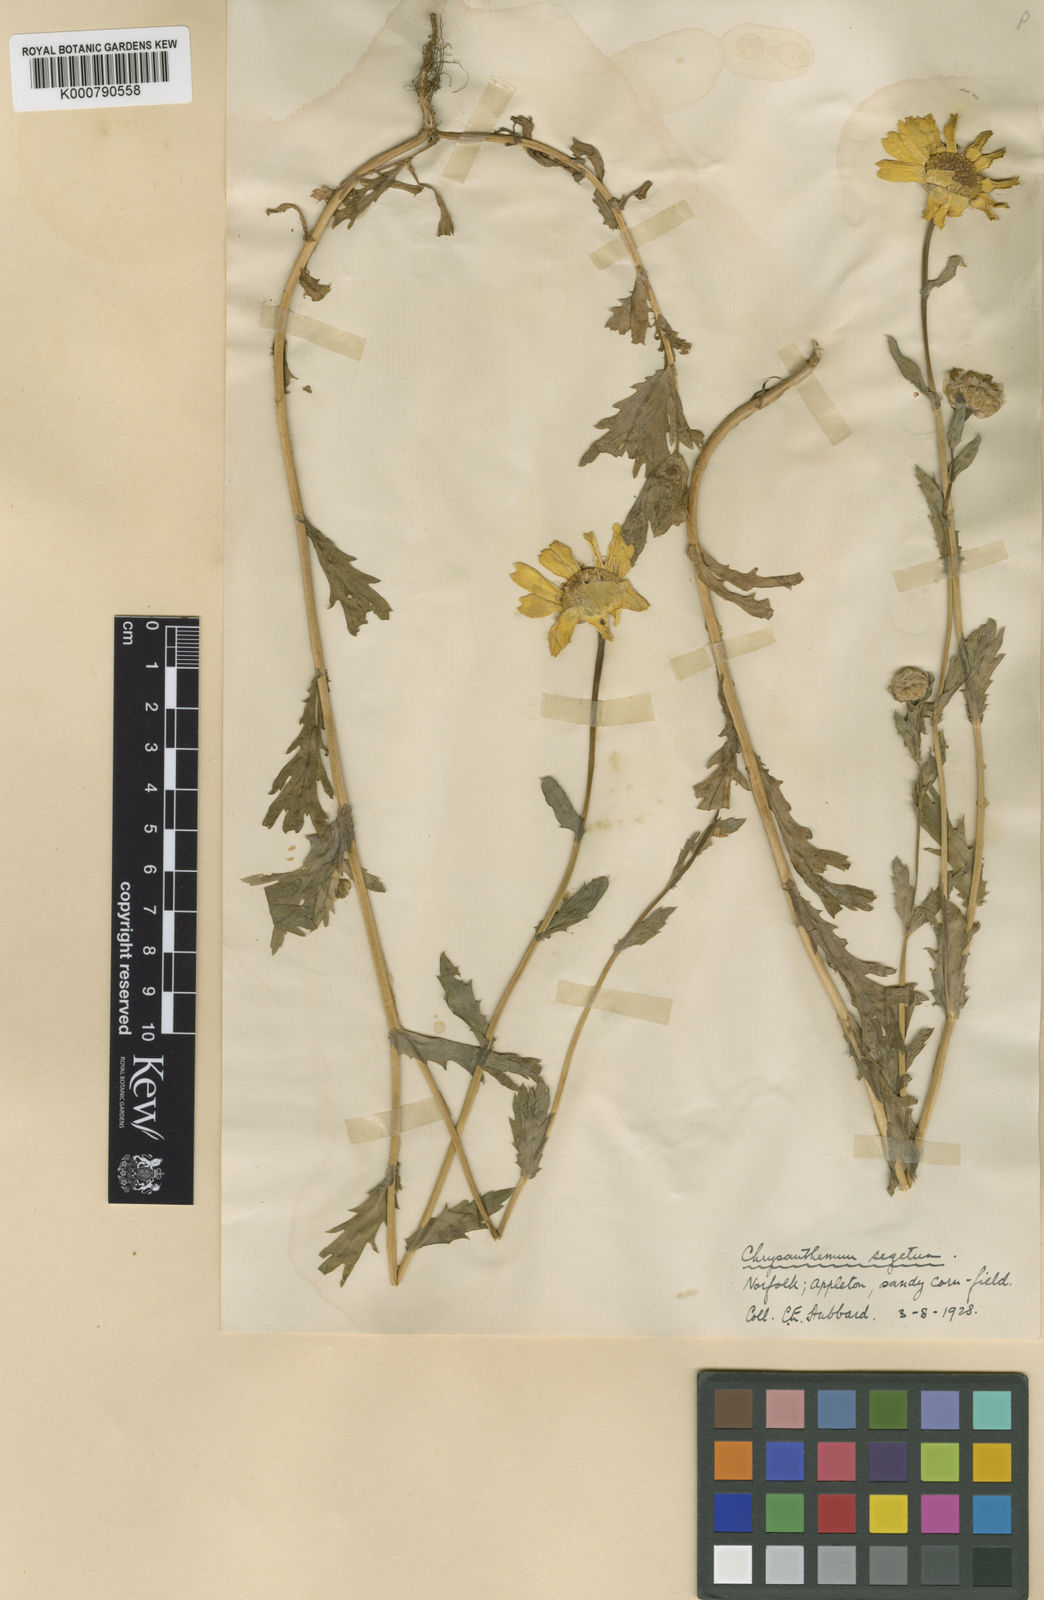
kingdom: Plantae
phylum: Tracheophyta
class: Magnoliopsida
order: Asterales
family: Asteraceae
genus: Glebionis
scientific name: Glebionis
